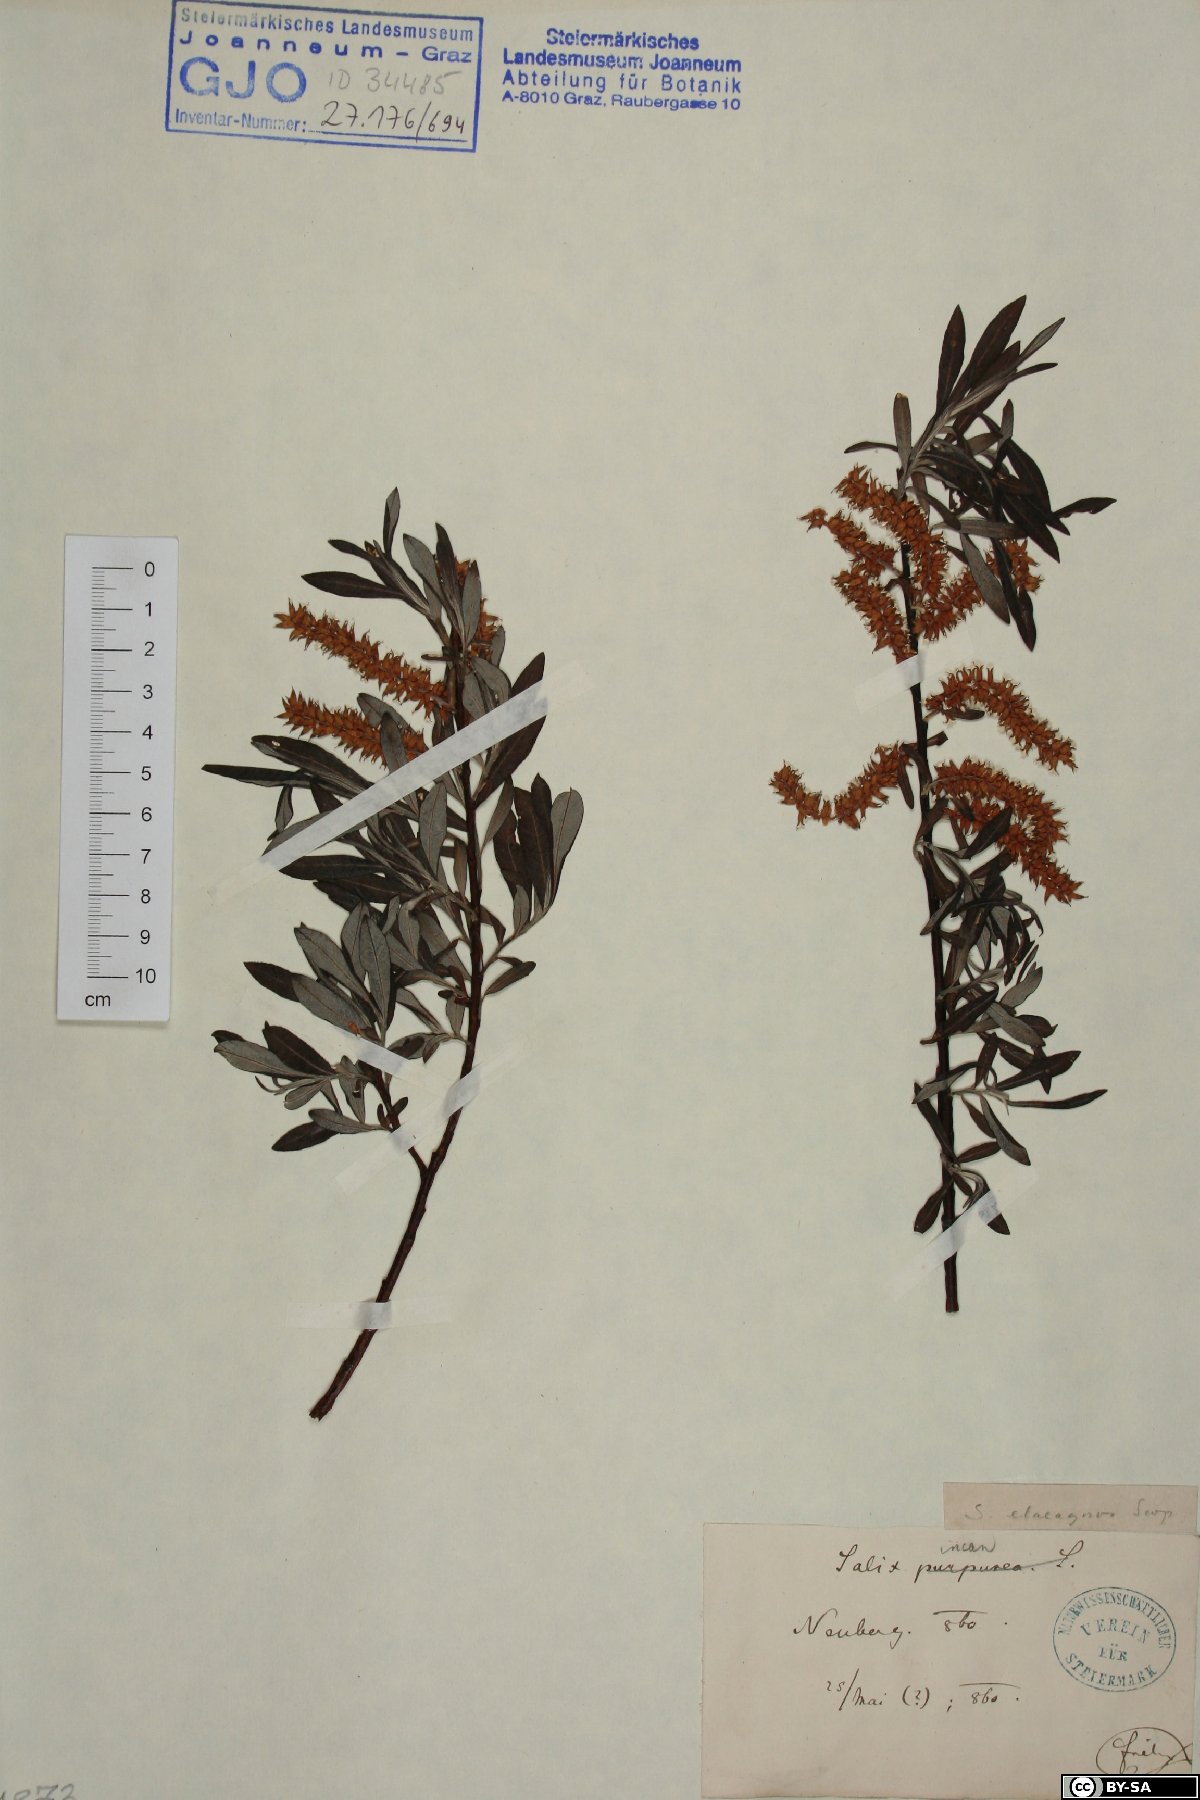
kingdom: Plantae
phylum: Tracheophyta
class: Magnoliopsida
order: Malpighiales
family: Salicaceae
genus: Salix
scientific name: Salix eleagnos
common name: Elaeagnus willow
